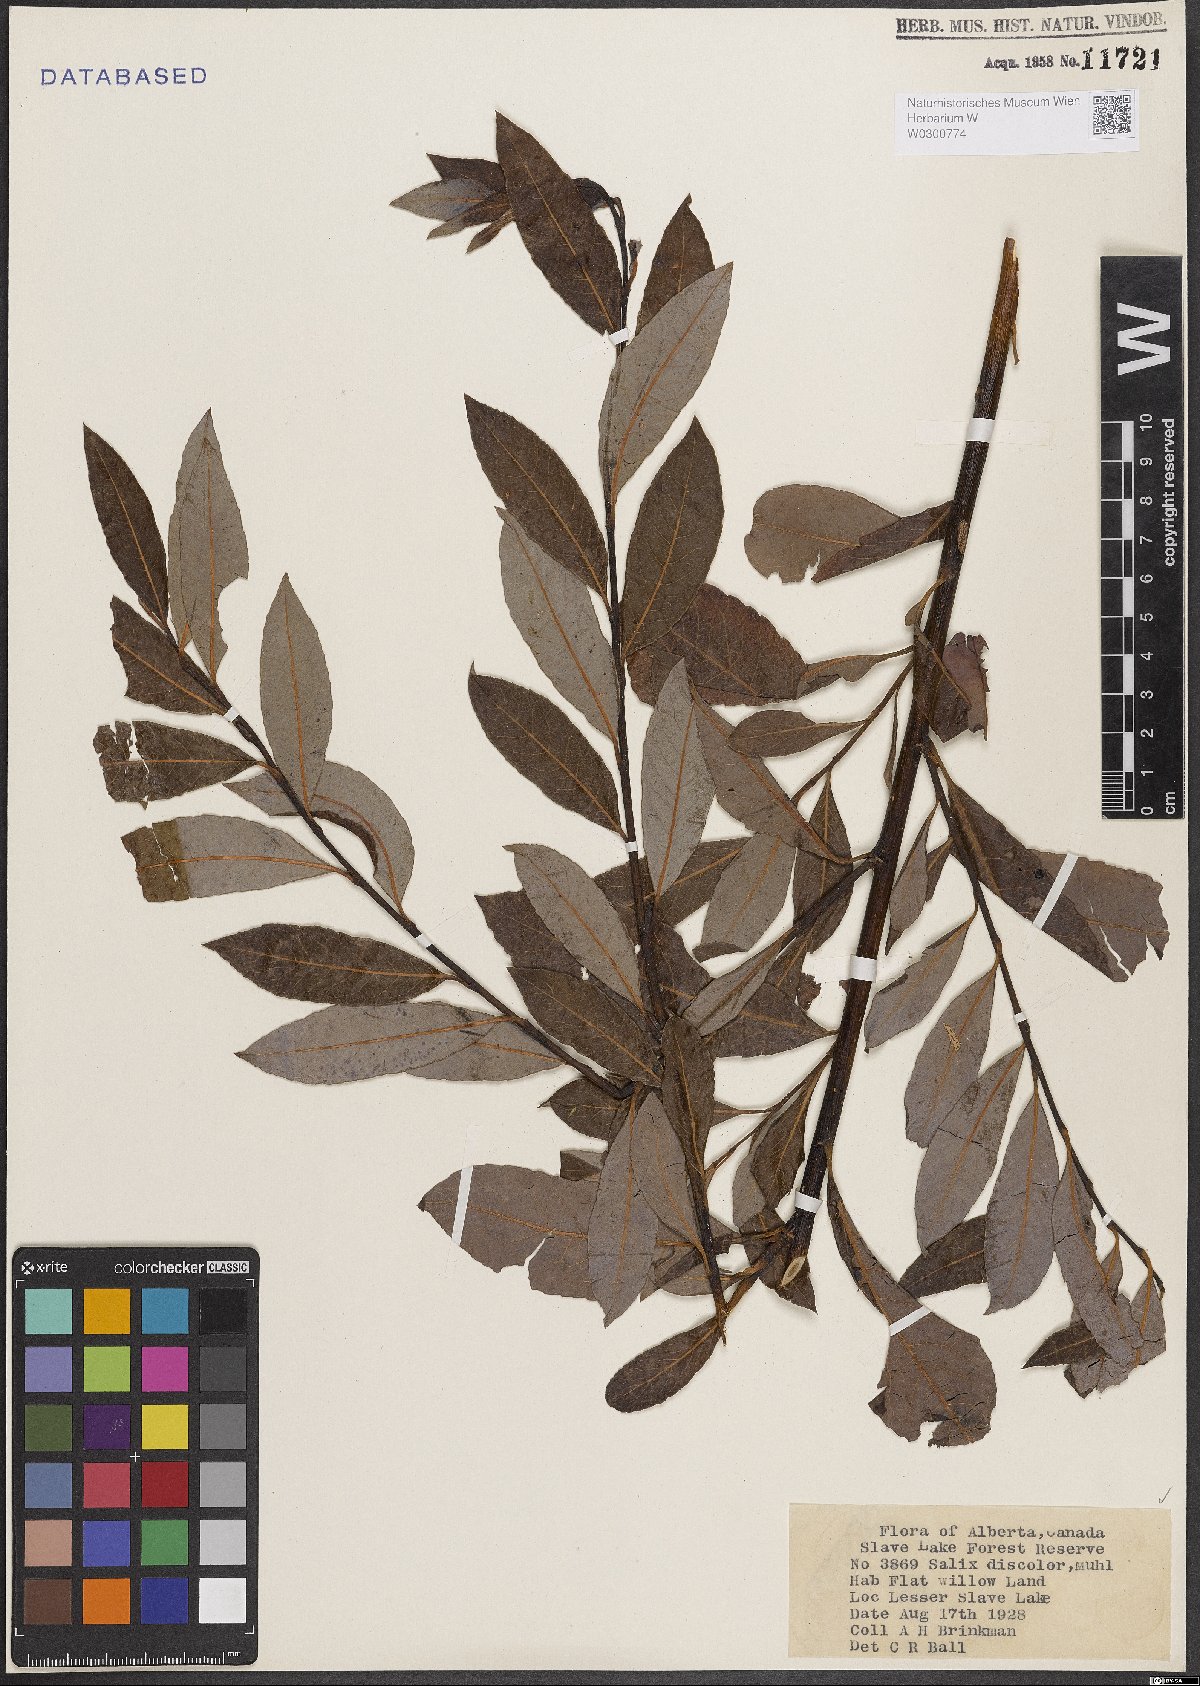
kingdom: Plantae
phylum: Tracheophyta
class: Magnoliopsida
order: Malpighiales
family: Salicaceae
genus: Salix
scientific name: Salix discolor
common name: Glaucous willow
